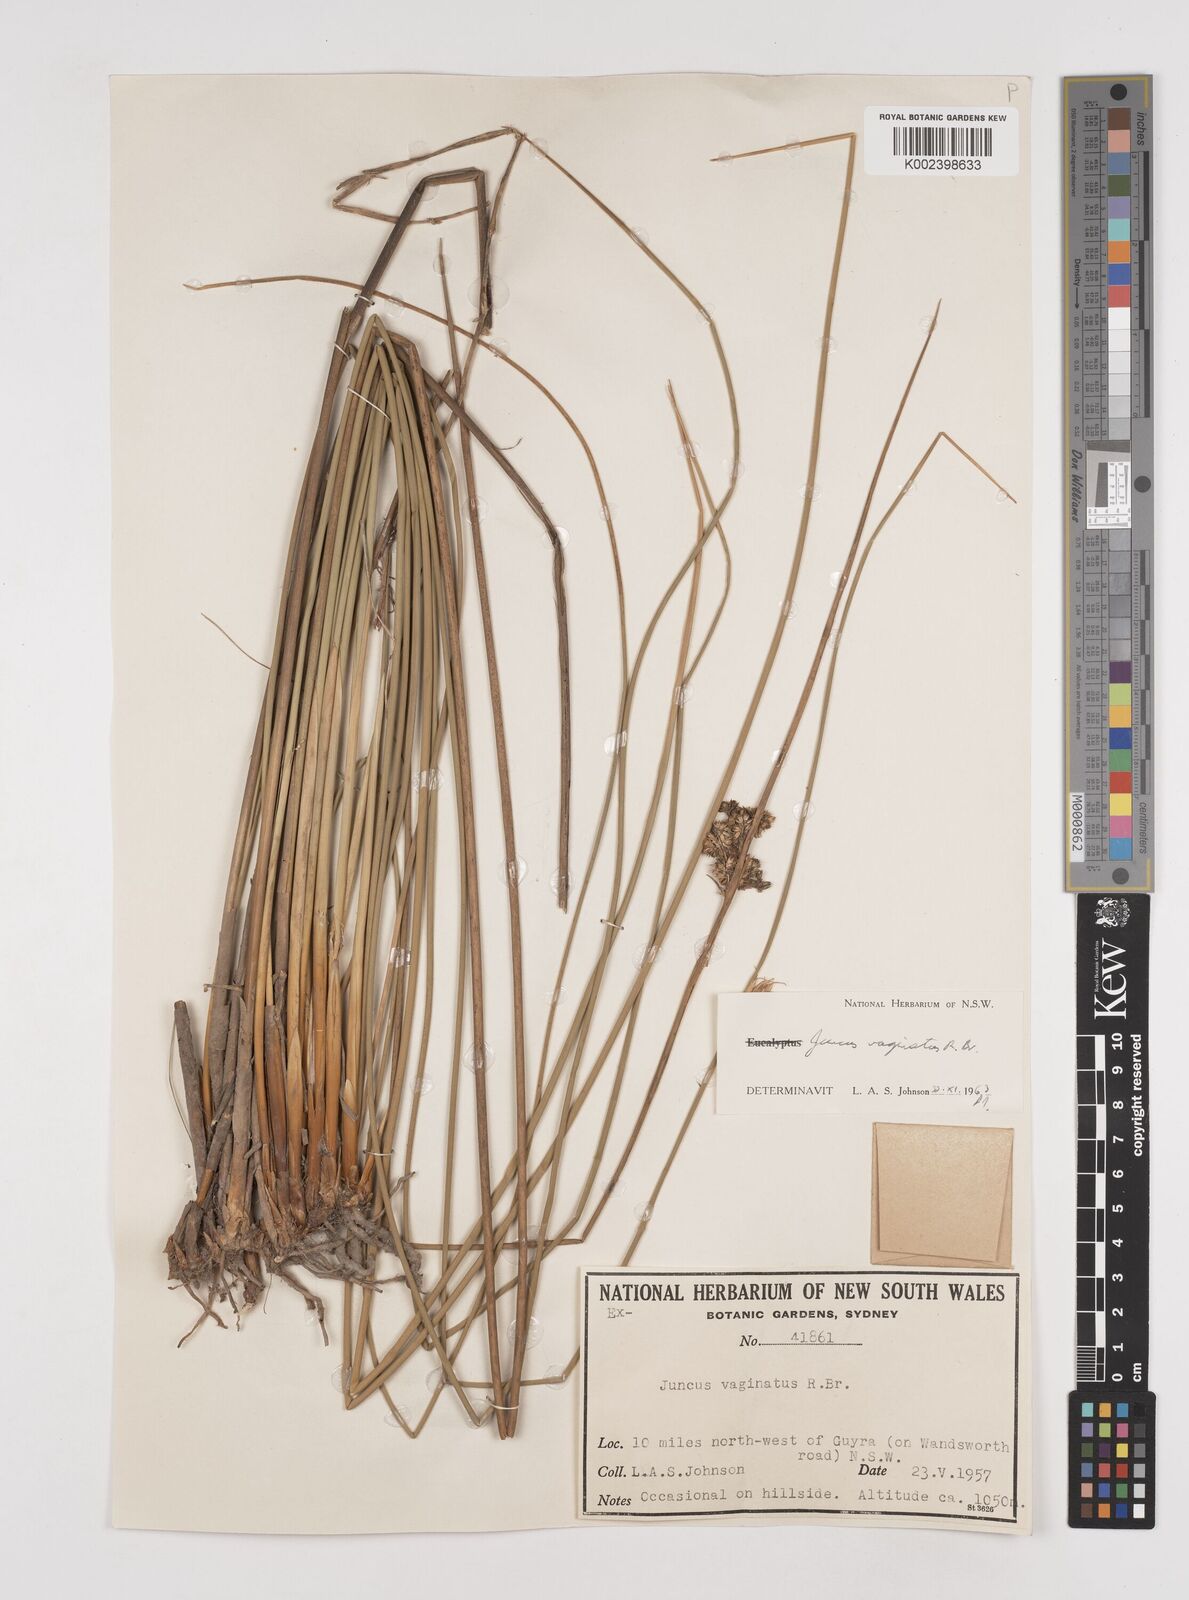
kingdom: Plantae
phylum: Tracheophyta
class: Liliopsida
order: Poales
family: Juncaceae
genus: Juncus
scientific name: Juncus vaginatus
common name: Clustered rush
